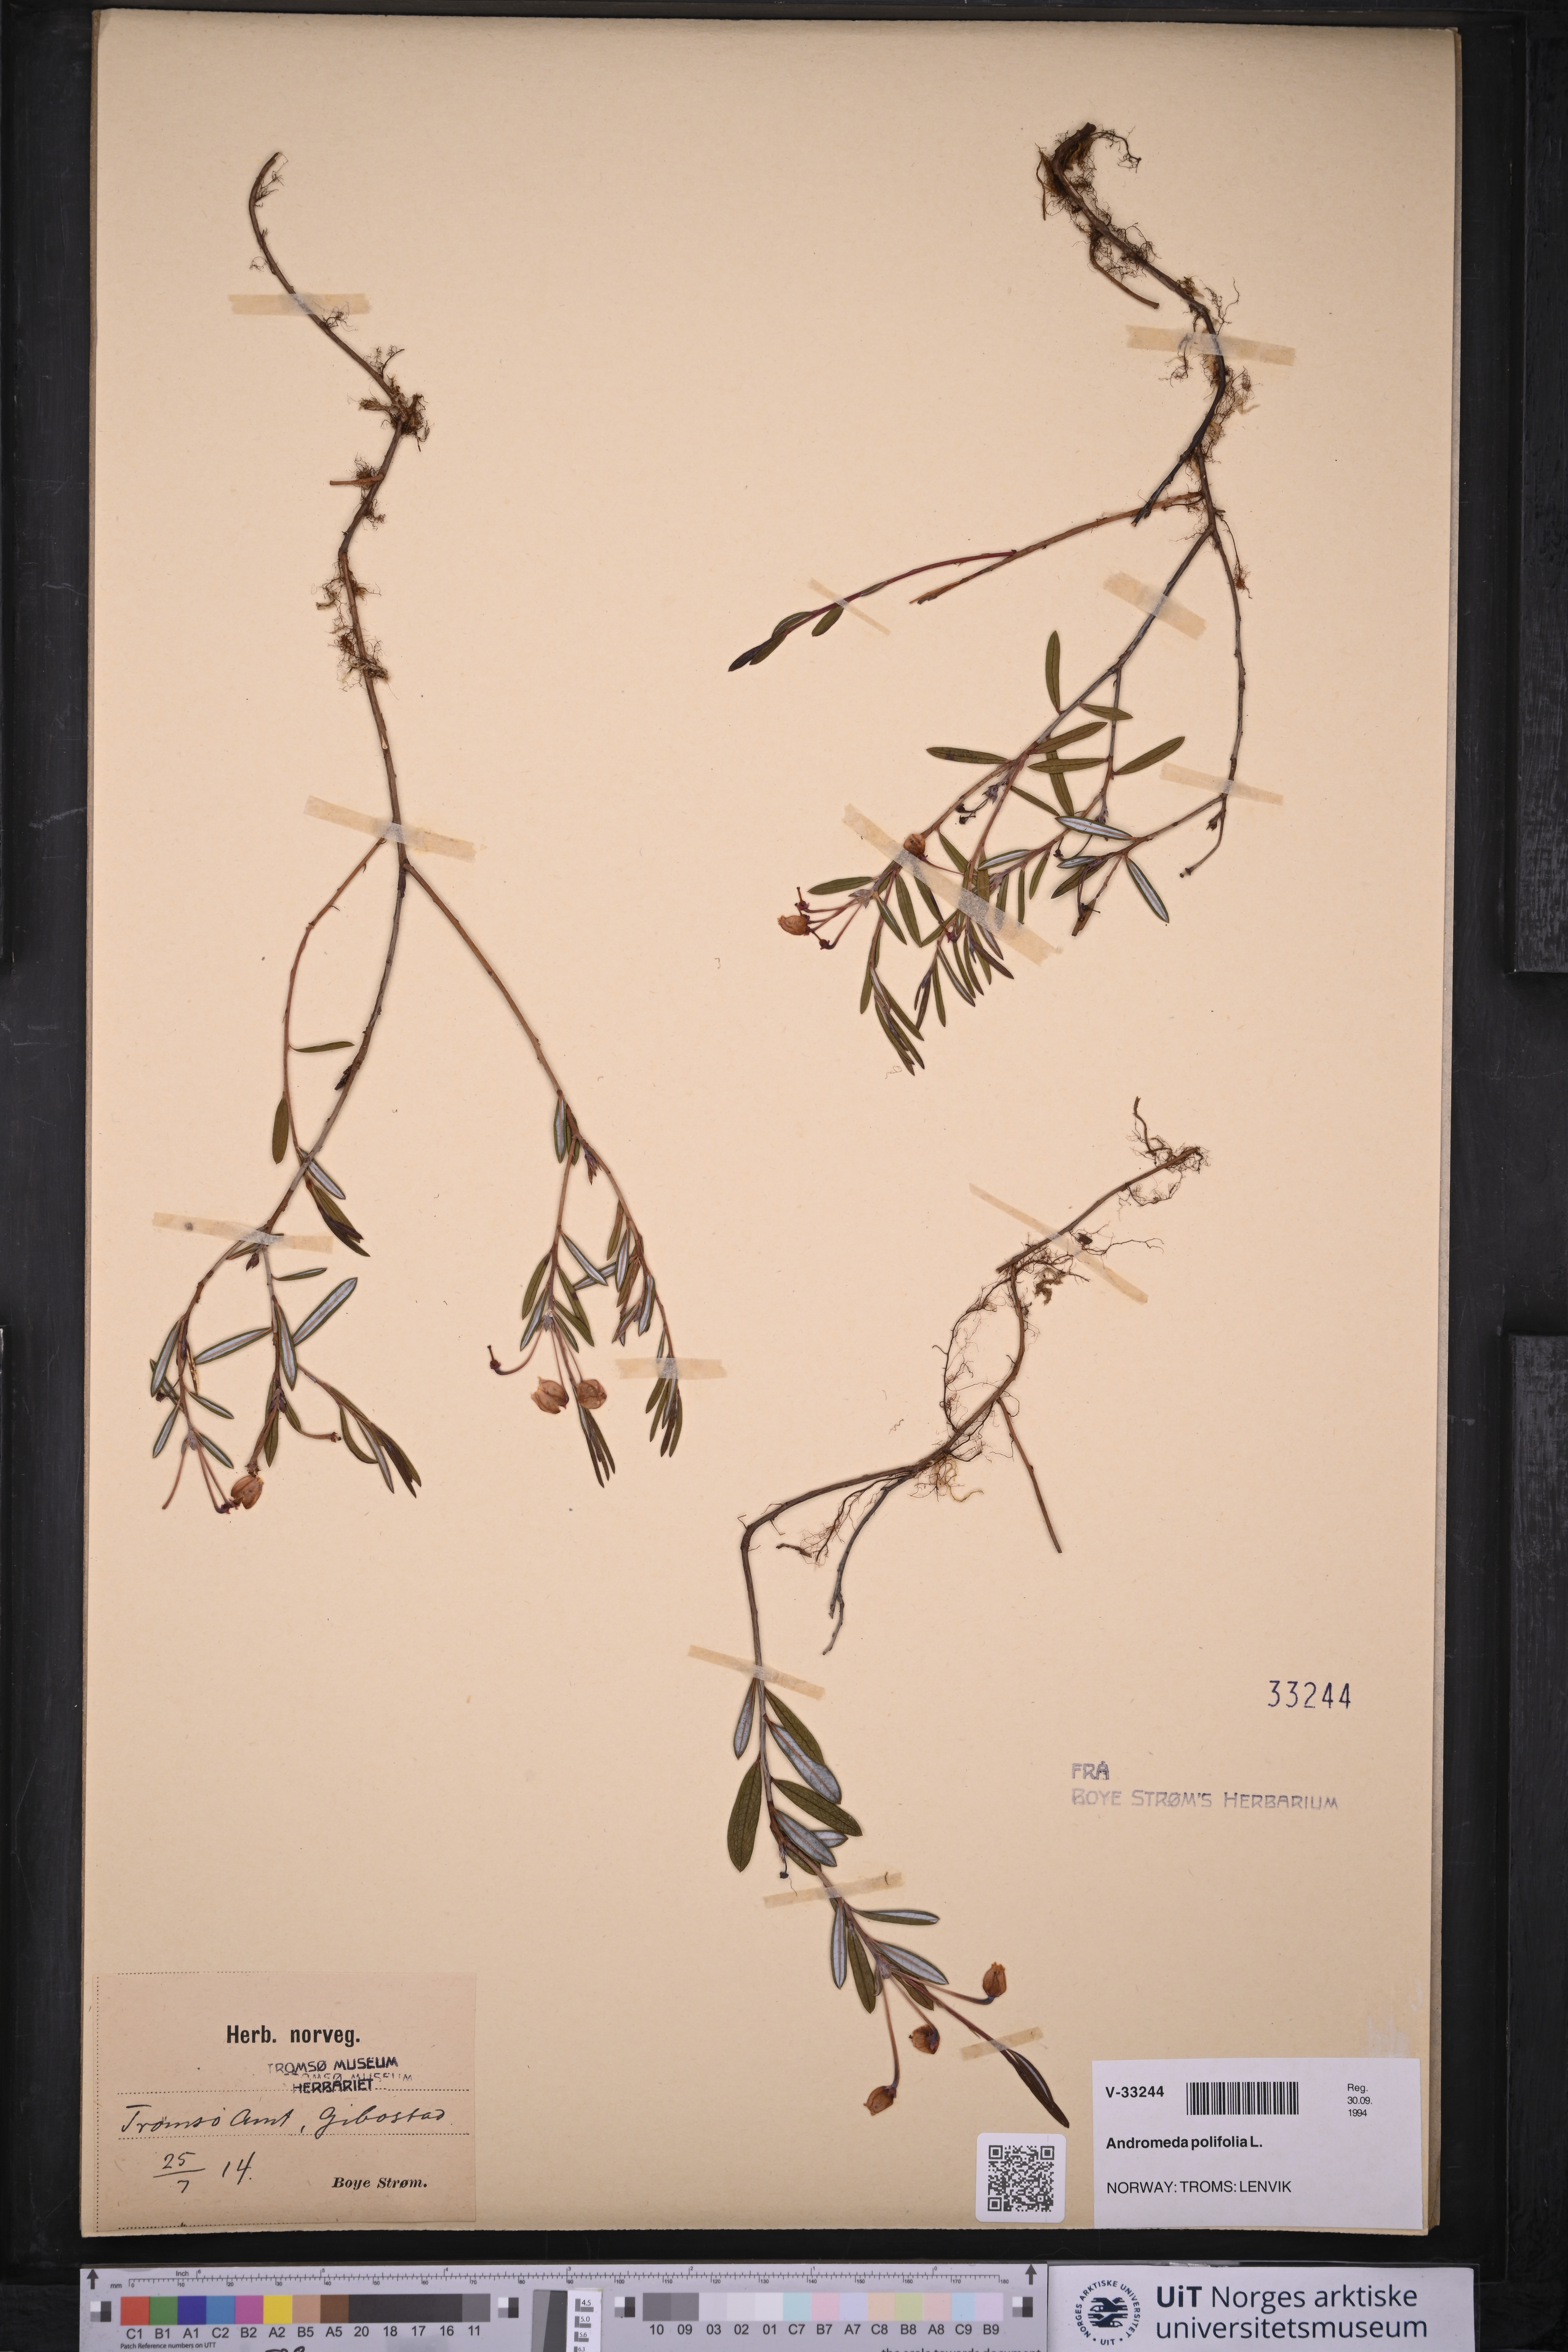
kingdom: Plantae
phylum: Tracheophyta
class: Magnoliopsida
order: Ericales
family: Ericaceae
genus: Andromeda
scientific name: Andromeda polifolia
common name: Bog-rosemary
